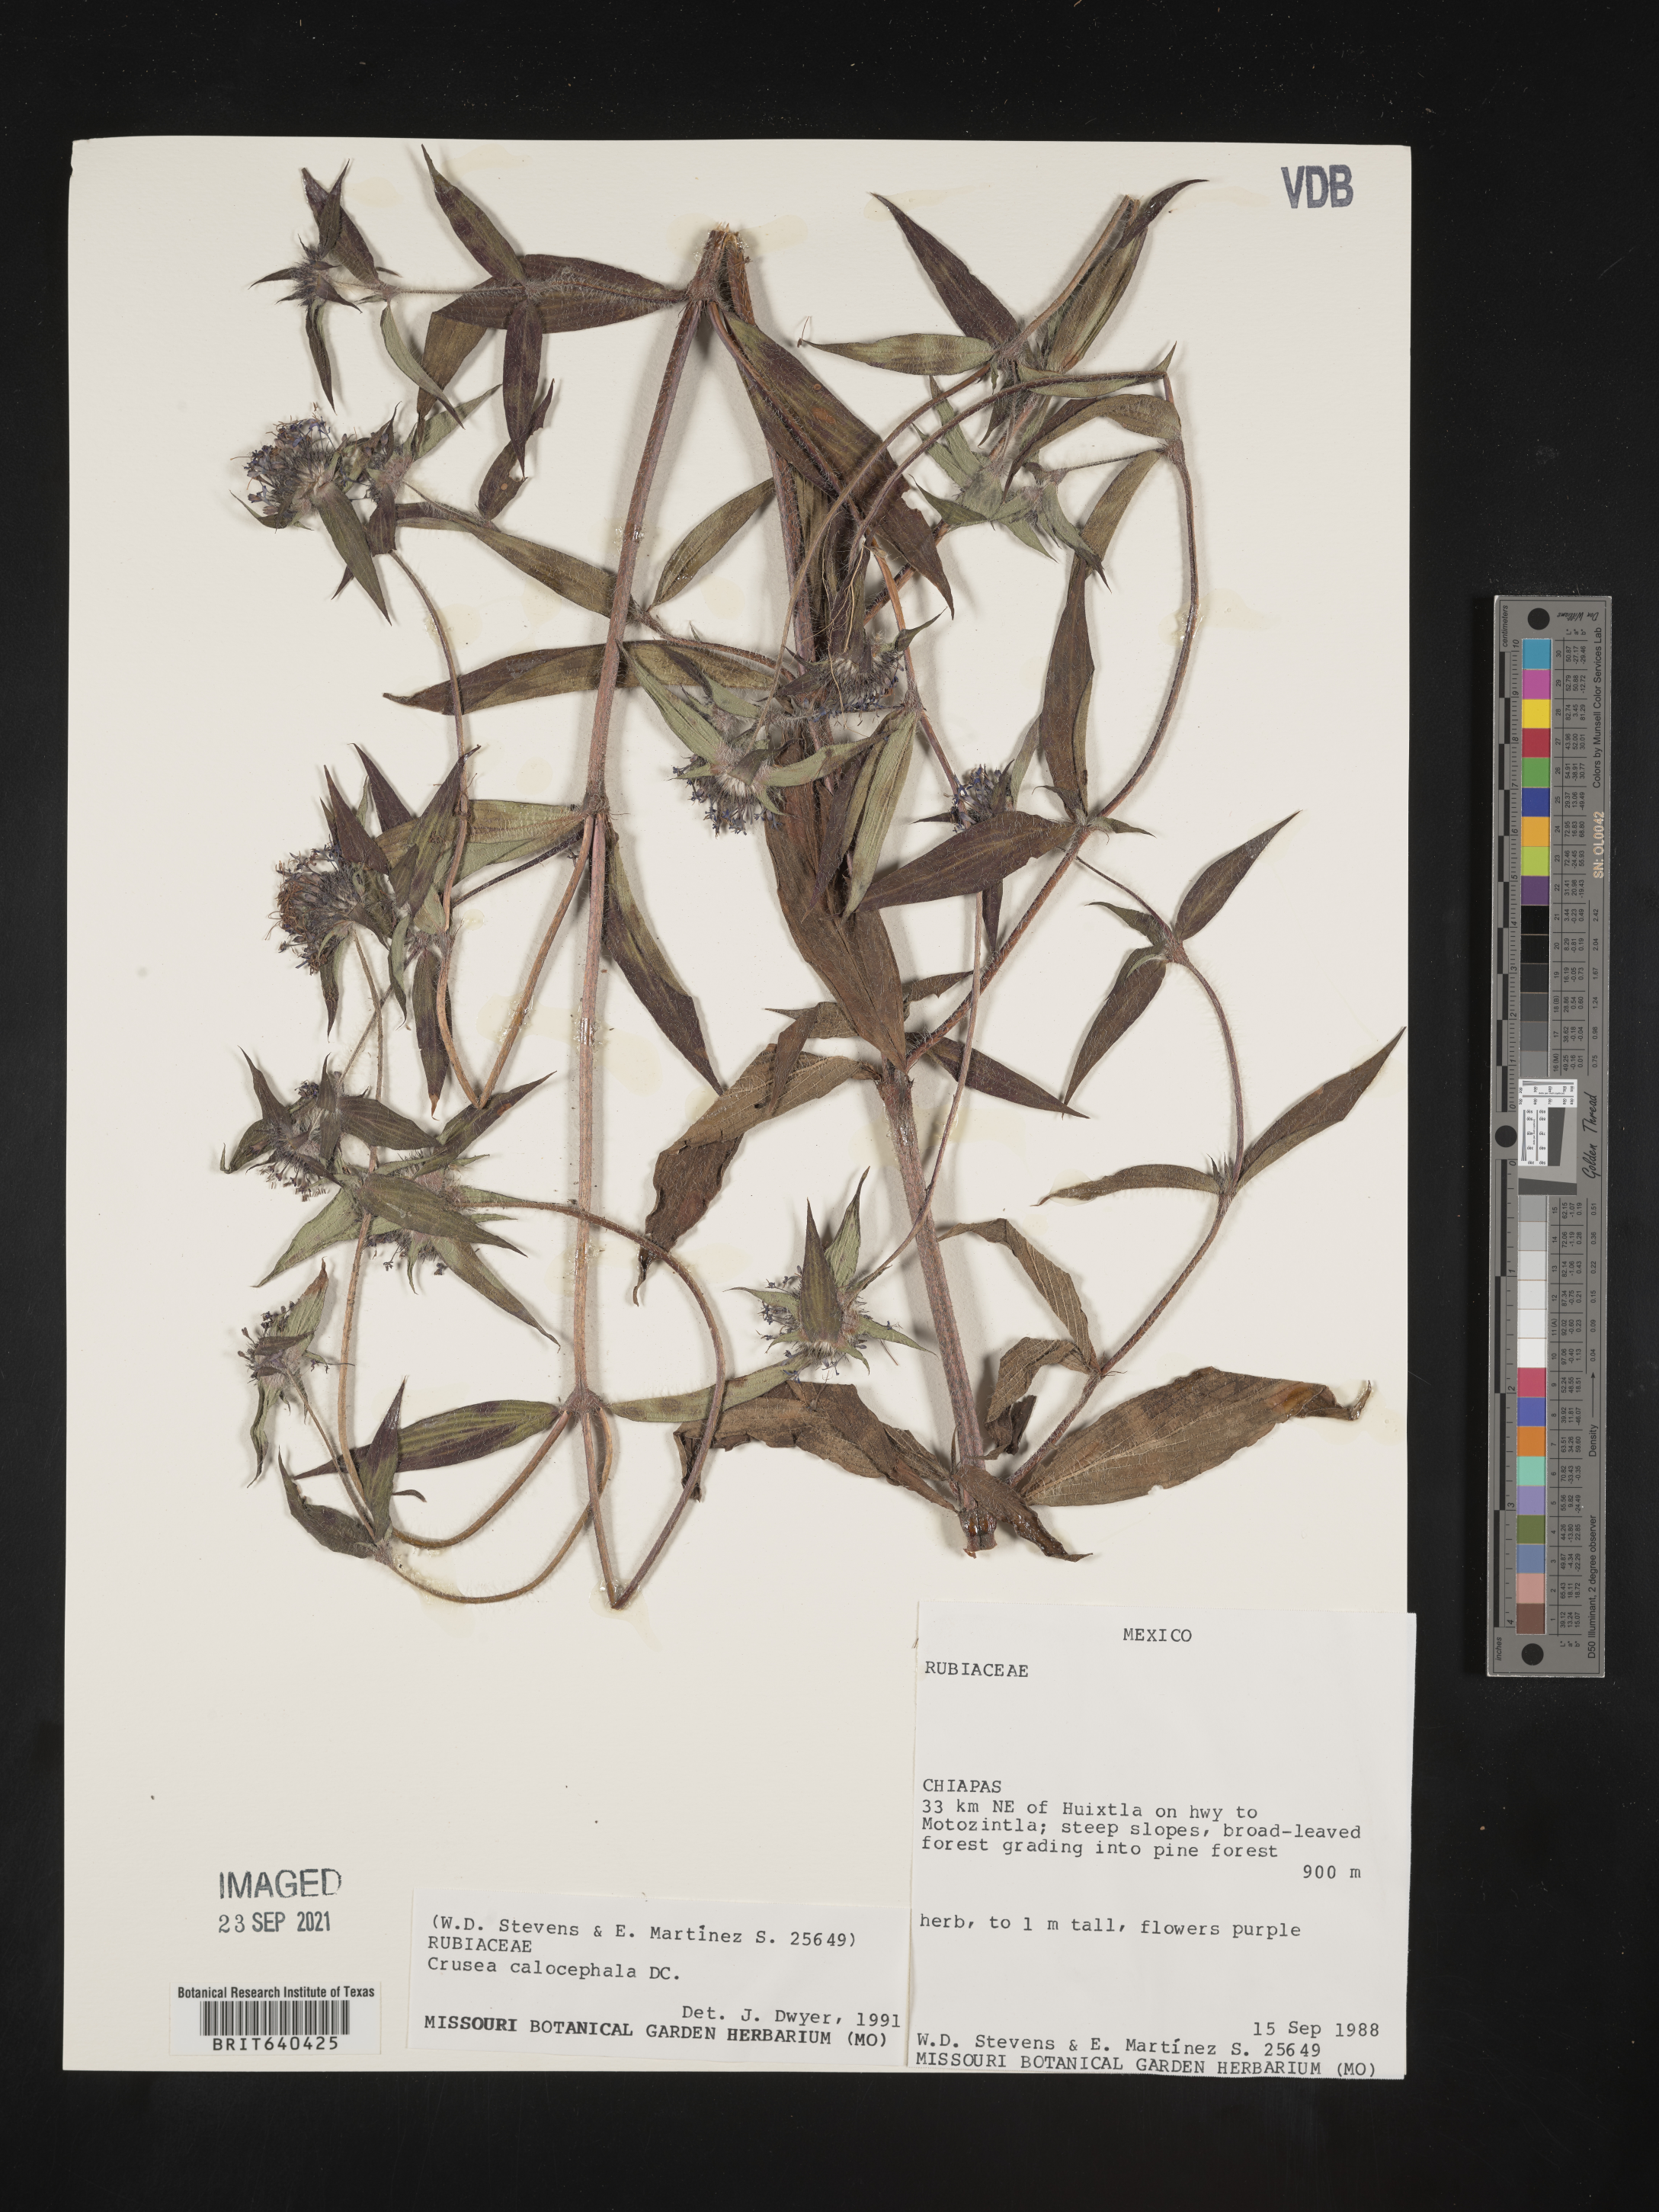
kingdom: Plantae
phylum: Tracheophyta
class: Magnoliopsida
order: Gentianales
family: Rubiaceae
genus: Crusea
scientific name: Crusea
